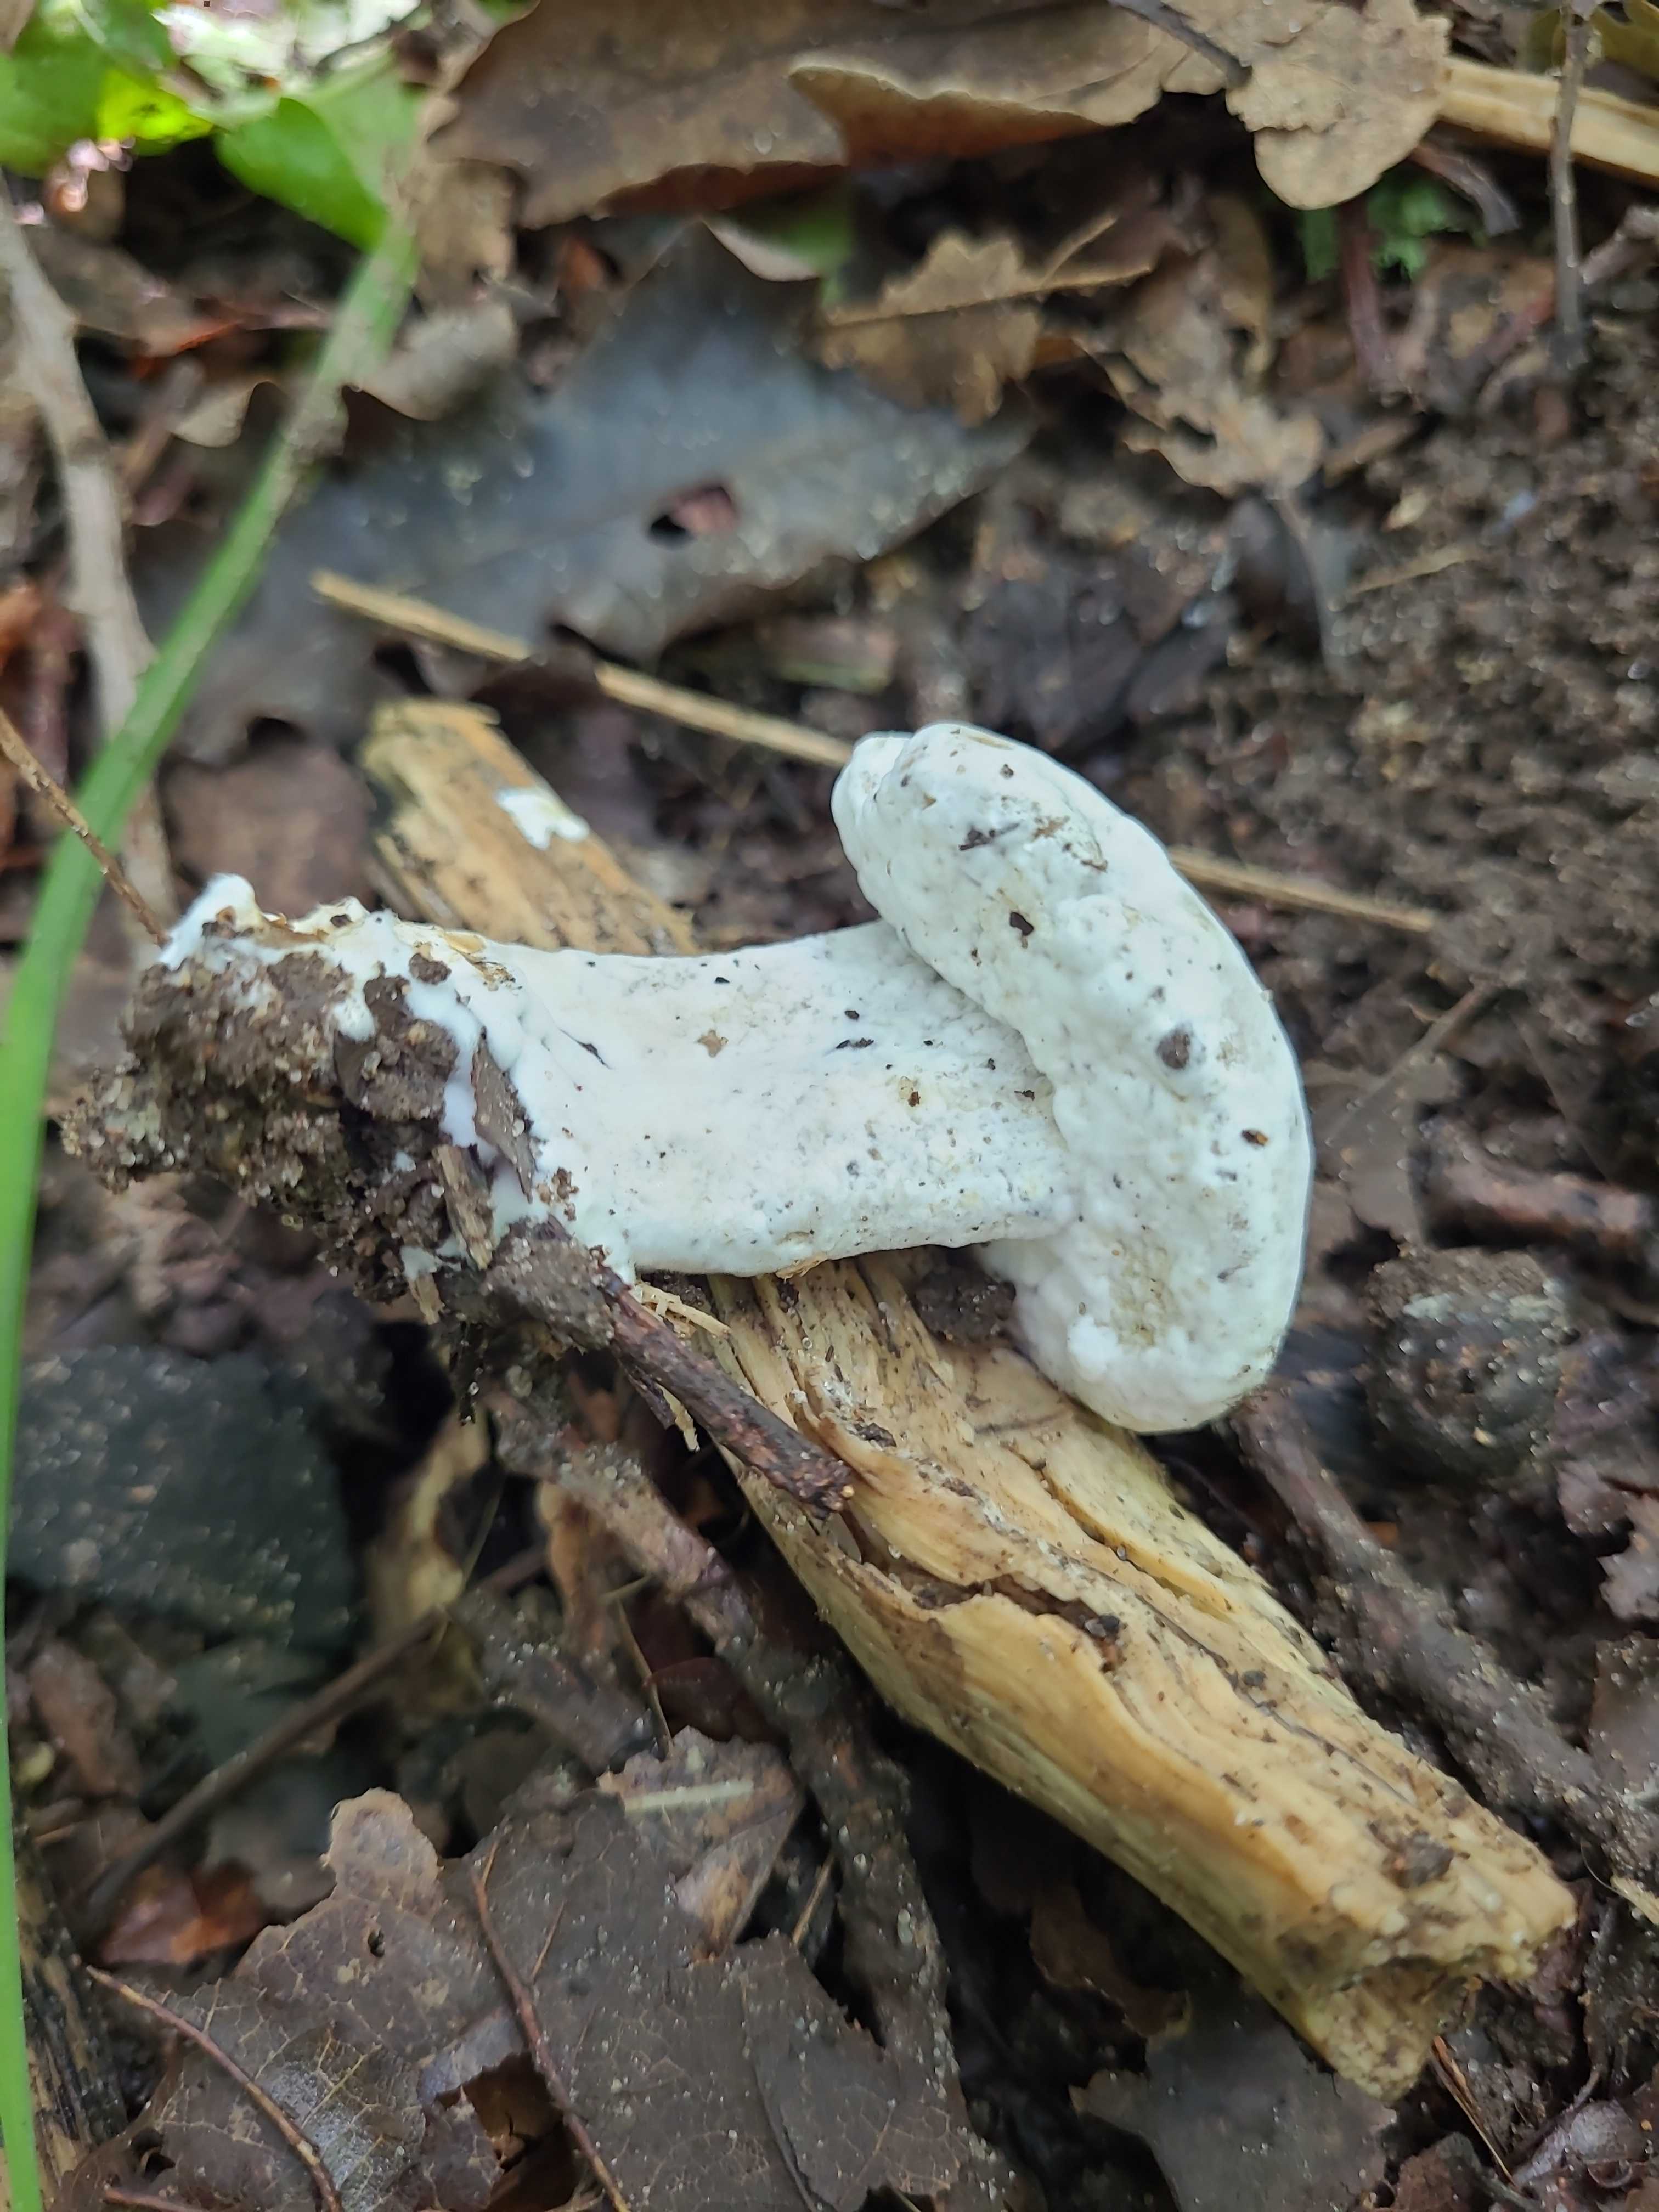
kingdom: Fungi
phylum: Ascomycota
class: Sordariomycetes
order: Hypocreales
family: Hypocreaceae
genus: Hypomyces
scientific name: Hypomyces
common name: snylteskorpe
